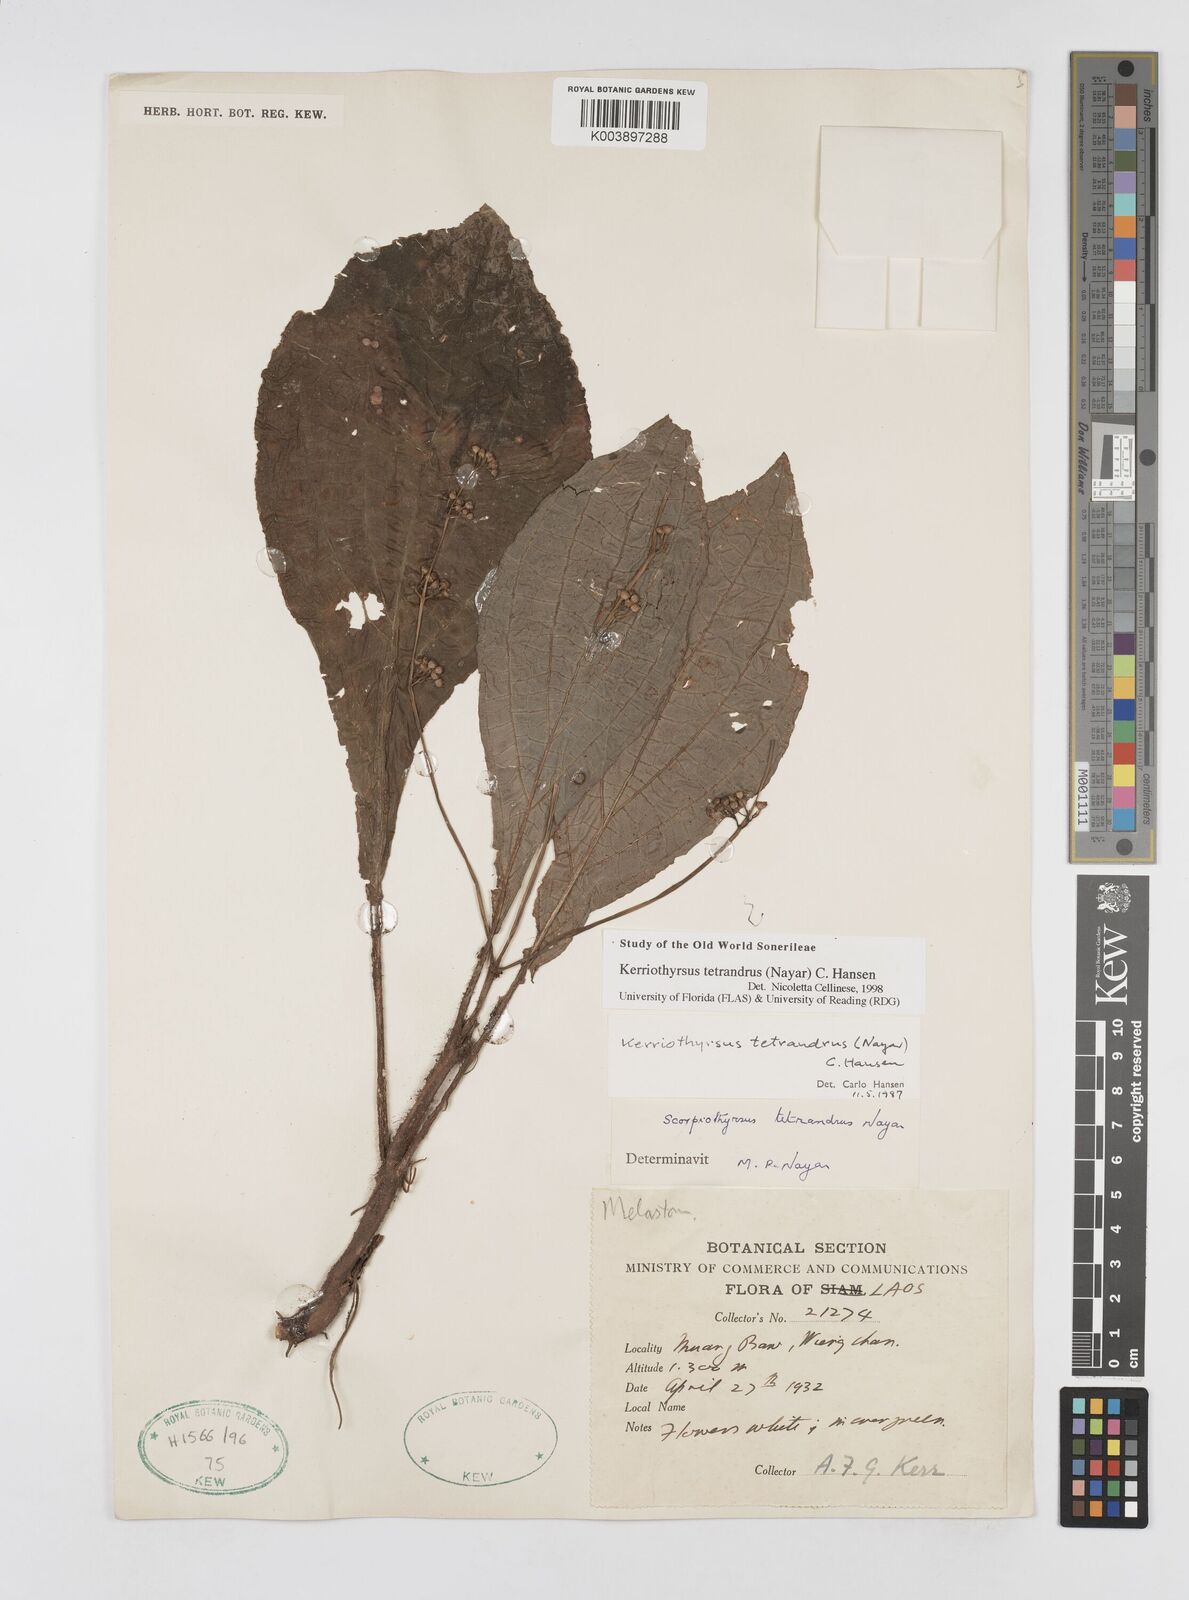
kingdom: Plantae
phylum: Tracheophyta
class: Magnoliopsida
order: Myrtales
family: Melastomataceae
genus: Kerriothyrsus
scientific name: Kerriothyrsus tetrandrus
